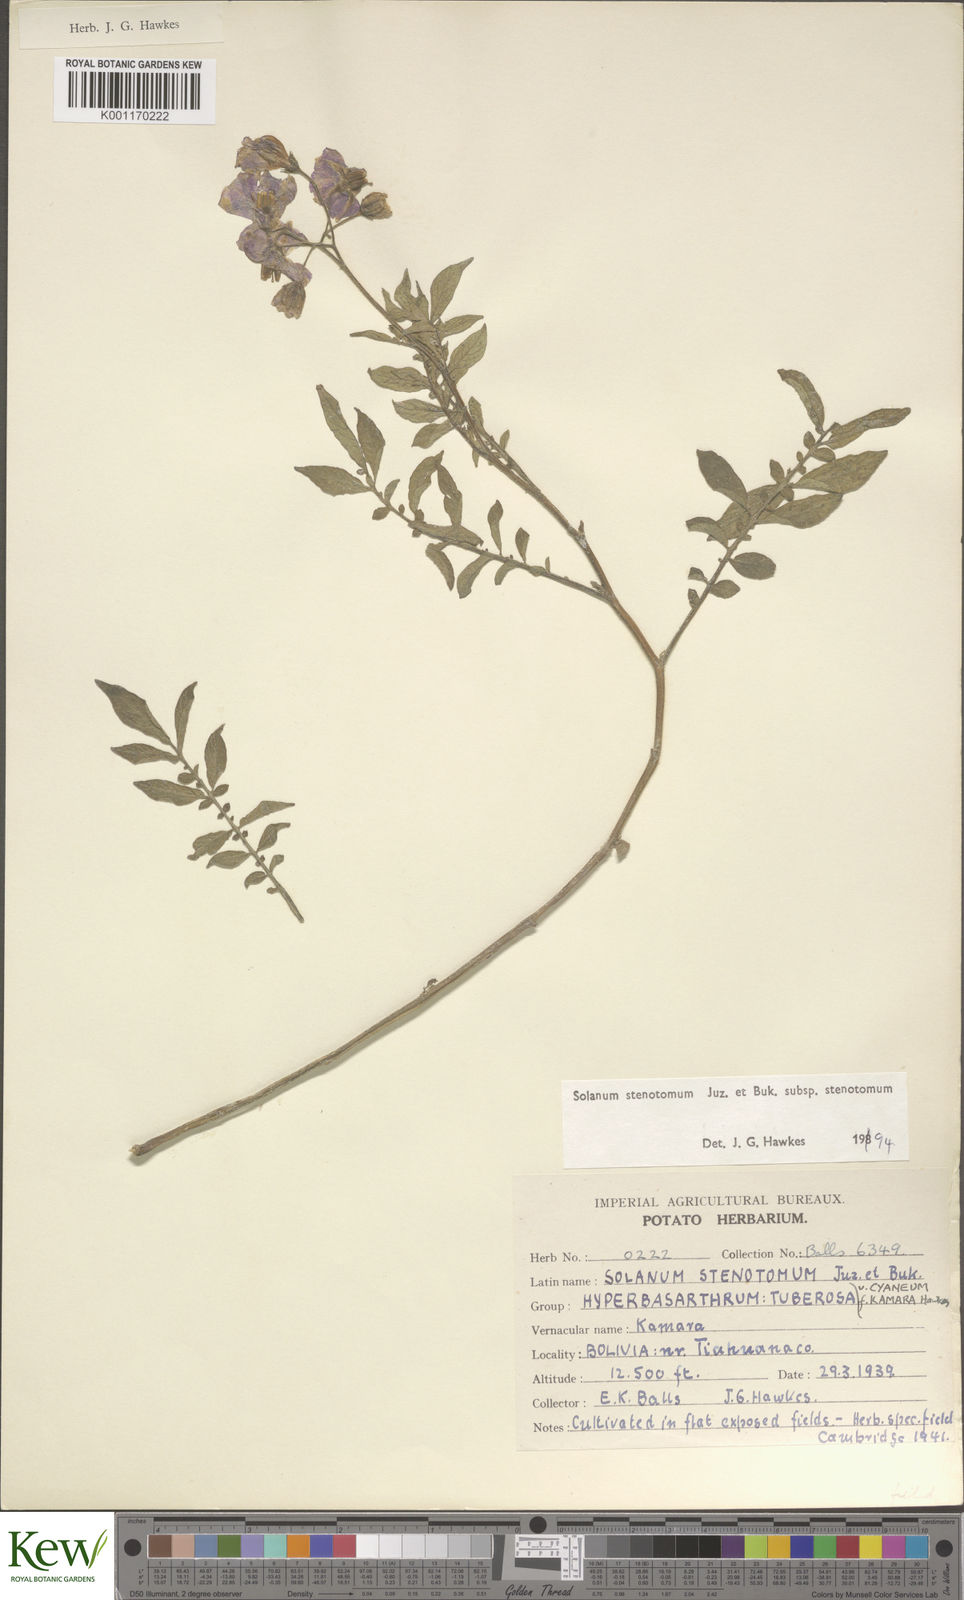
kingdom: Plantae
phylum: Tracheophyta
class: Magnoliopsida
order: Solanales
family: Solanaceae
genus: Solanum
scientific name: Solanum tuberosum
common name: Potato
